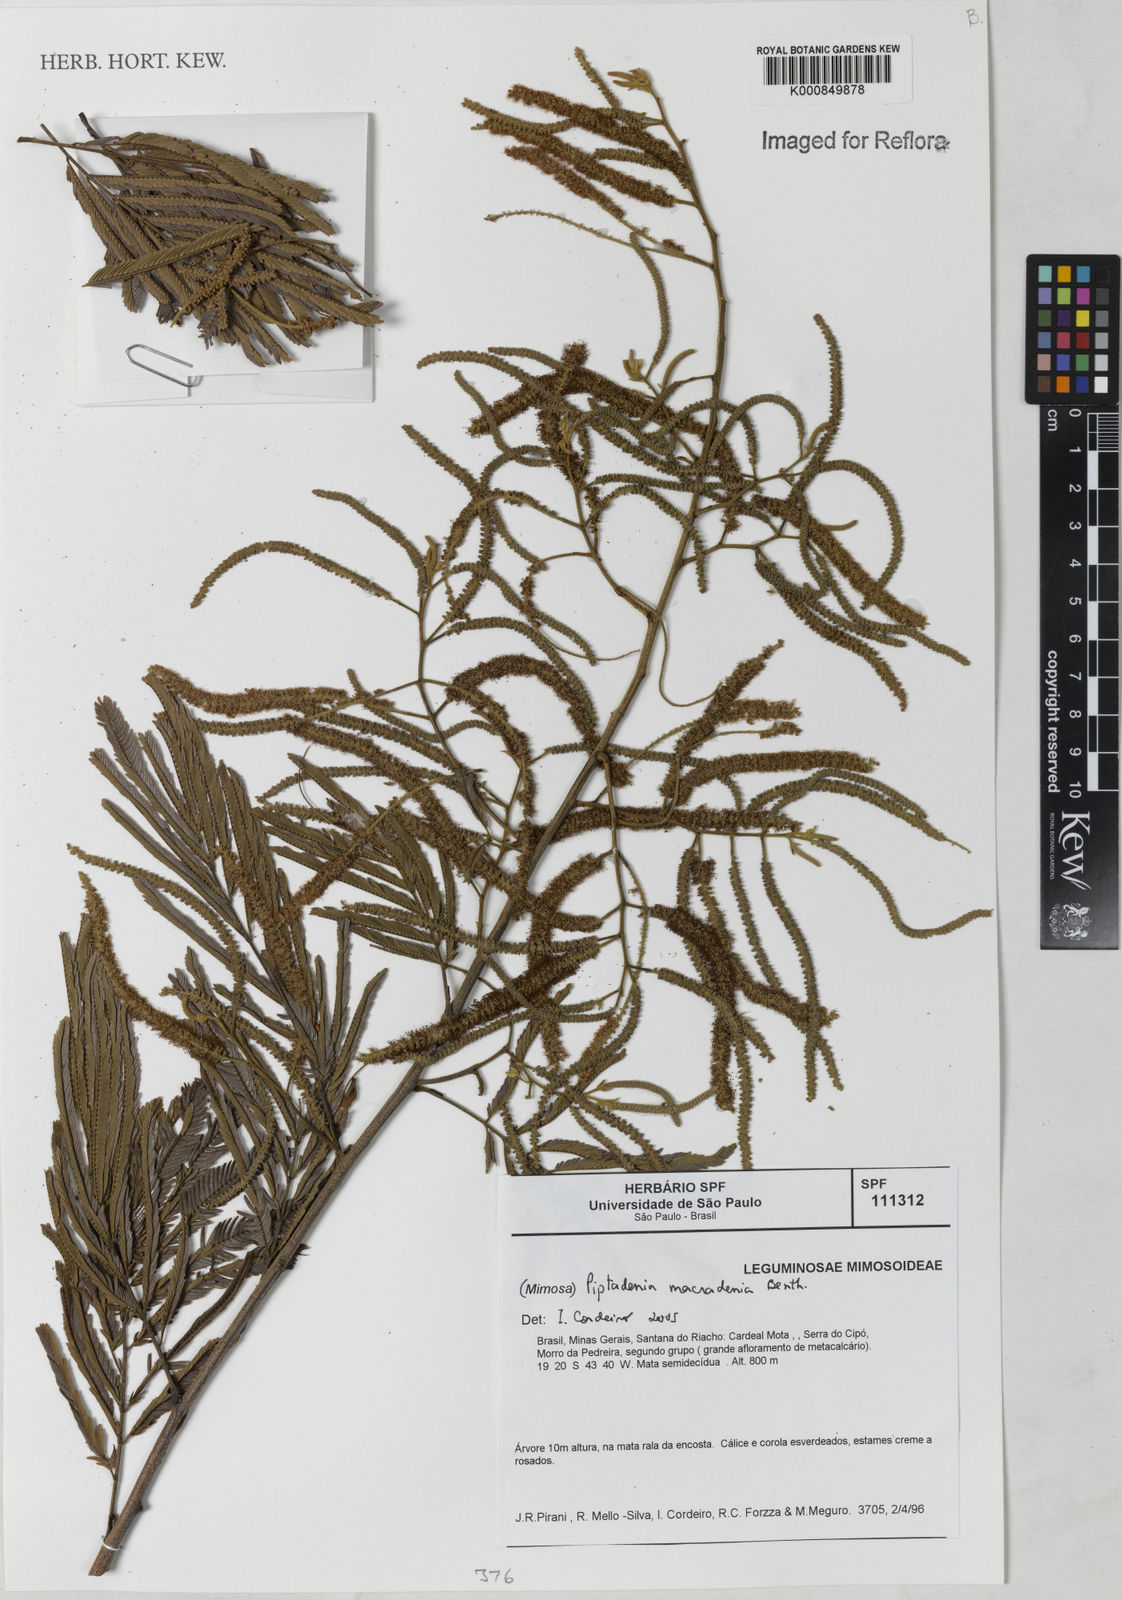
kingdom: Plantae
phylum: Tracheophyta
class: Magnoliopsida
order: Fabales
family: Fabaceae
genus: Piptadenia
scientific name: Piptadenia macradenia
